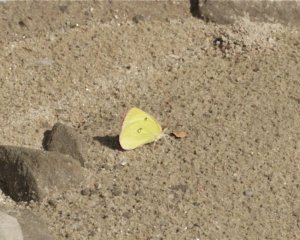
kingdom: Animalia
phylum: Arthropoda
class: Insecta
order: Lepidoptera
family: Pieridae
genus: Colias
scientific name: Colias interior
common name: Pink-edged Sulphur
